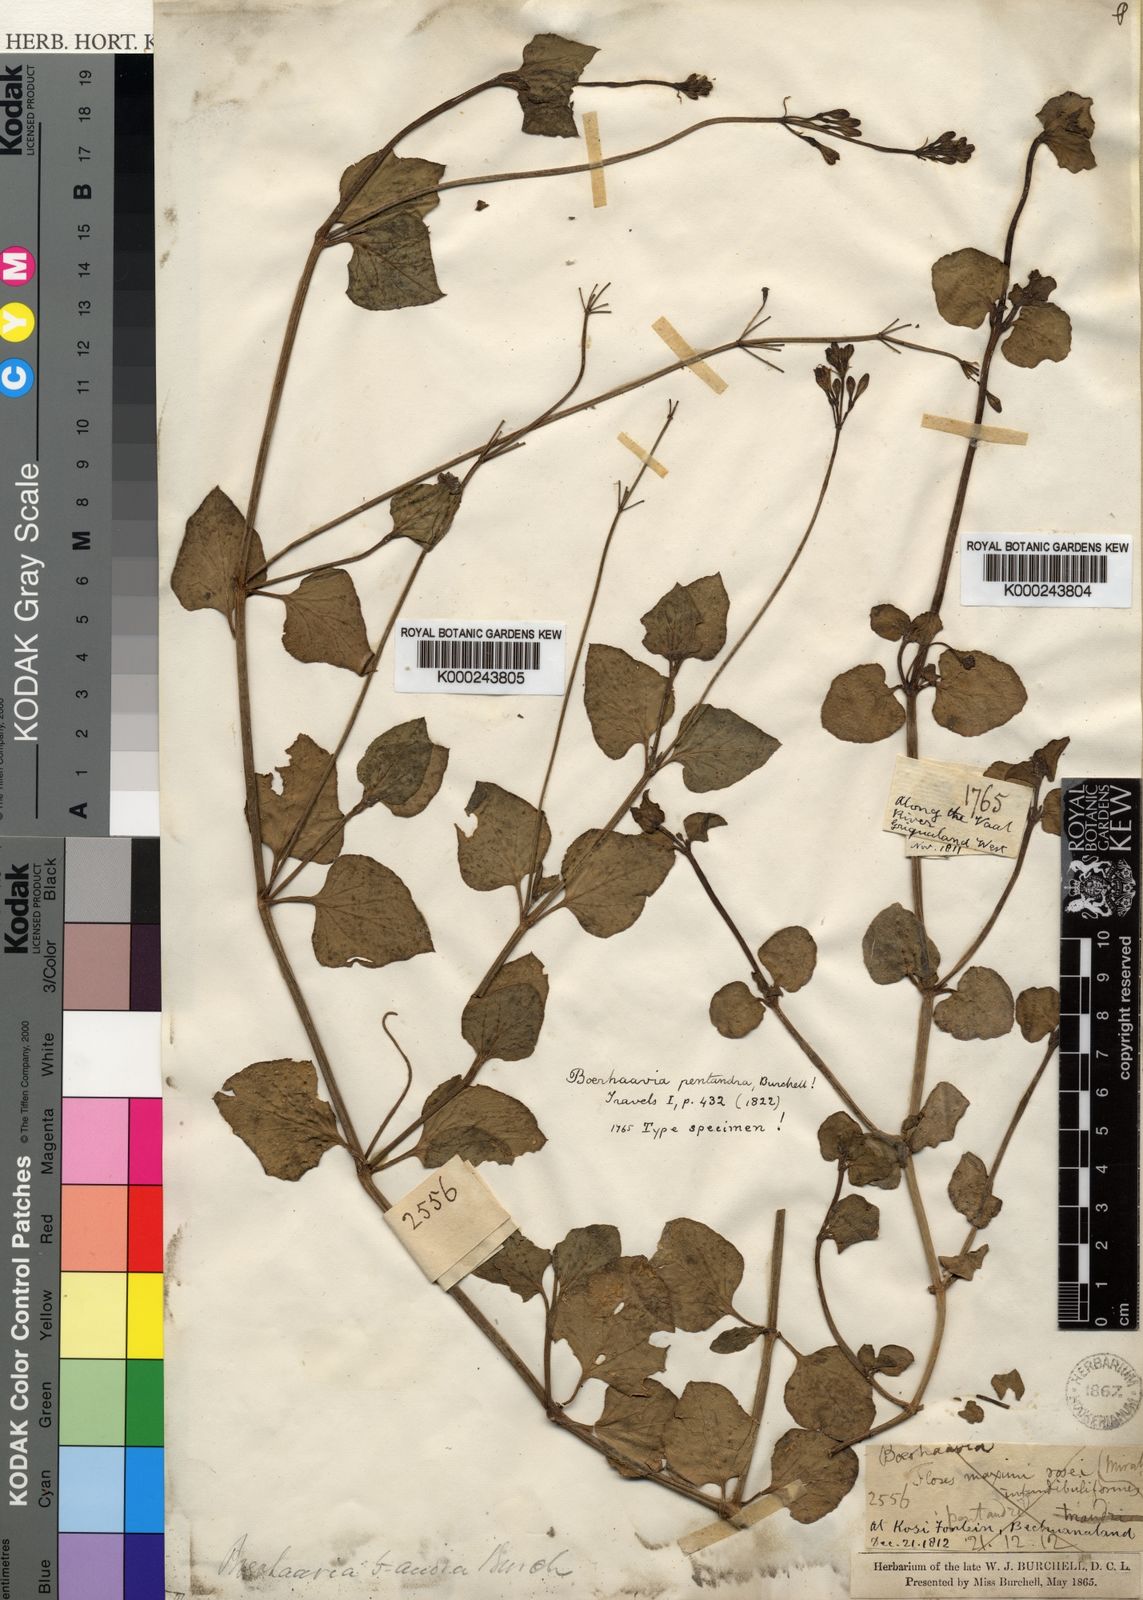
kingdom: Plantae
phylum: Tracheophyta
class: Magnoliopsida
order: Caryophyllales
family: Nyctaginaceae
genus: Commicarpus
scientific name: Commicarpus pentandrus
